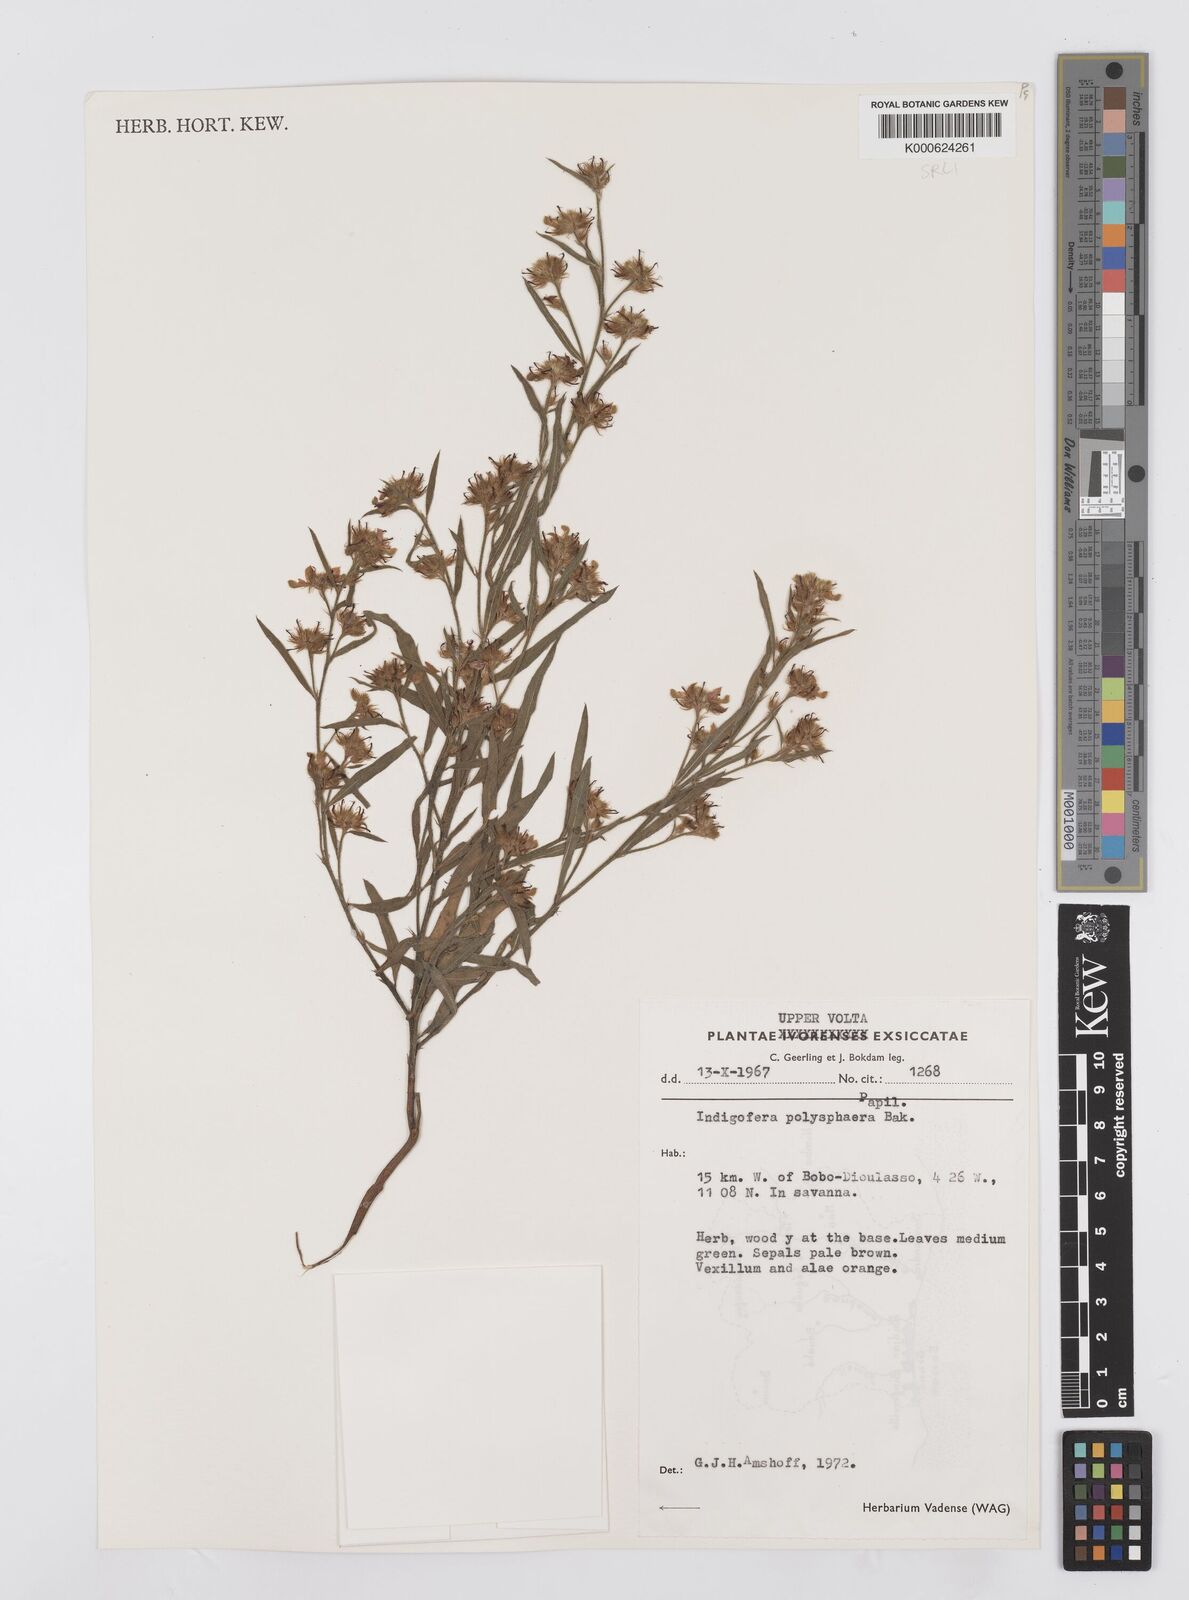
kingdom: Plantae
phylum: Tracheophyta
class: Magnoliopsida
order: Fabales
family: Fabaceae
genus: Indigofera
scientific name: Indigofera polysphaera
